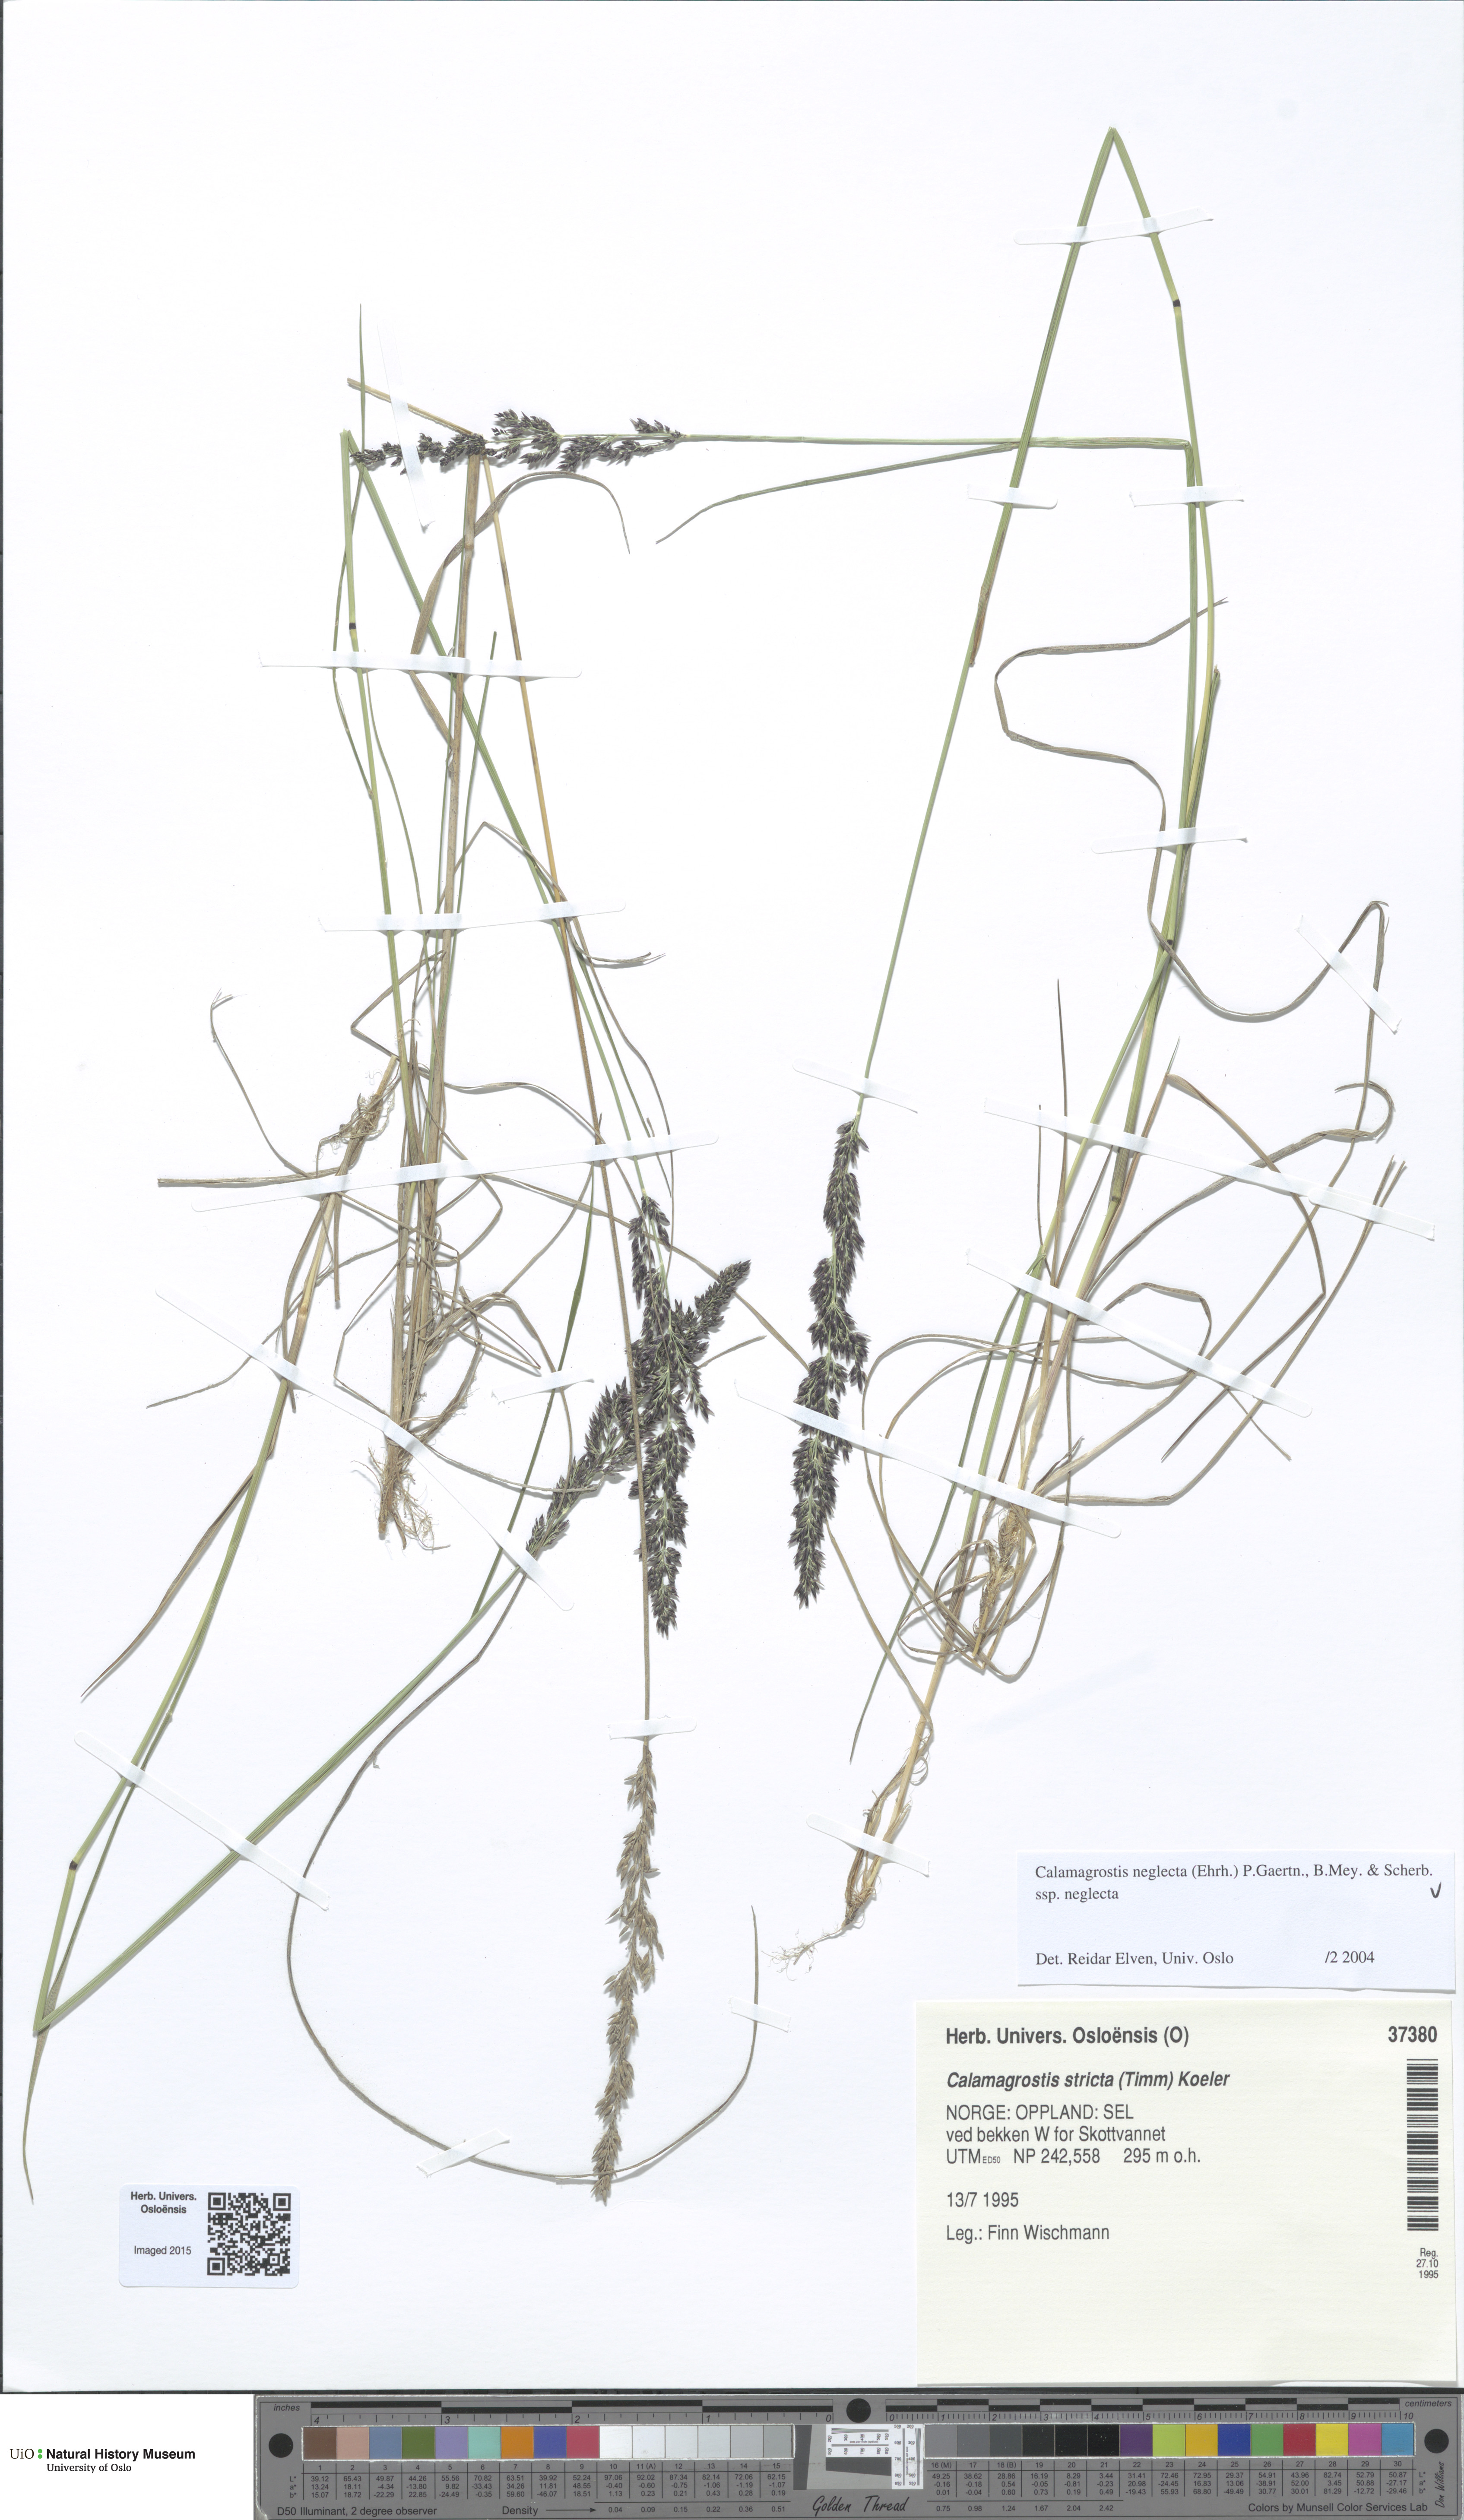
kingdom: Plantae
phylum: Tracheophyta
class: Liliopsida
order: Poales
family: Poaceae
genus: Achnatherum
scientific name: Achnatherum calamagrostis
